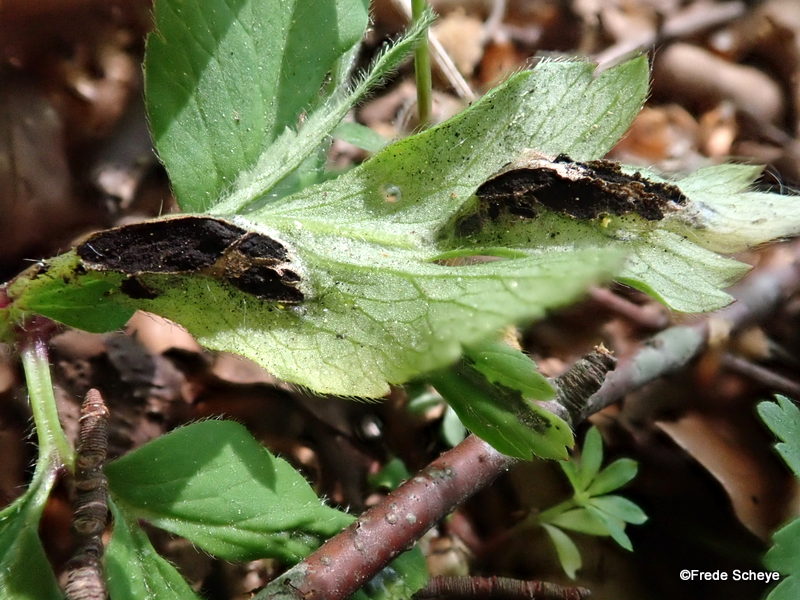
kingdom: Fungi
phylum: Basidiomycota
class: Ustilaginomycetes
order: Urocystidales
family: Urocystidaceae
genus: Urocystis
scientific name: Urocystis anemones
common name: anemone-brand
